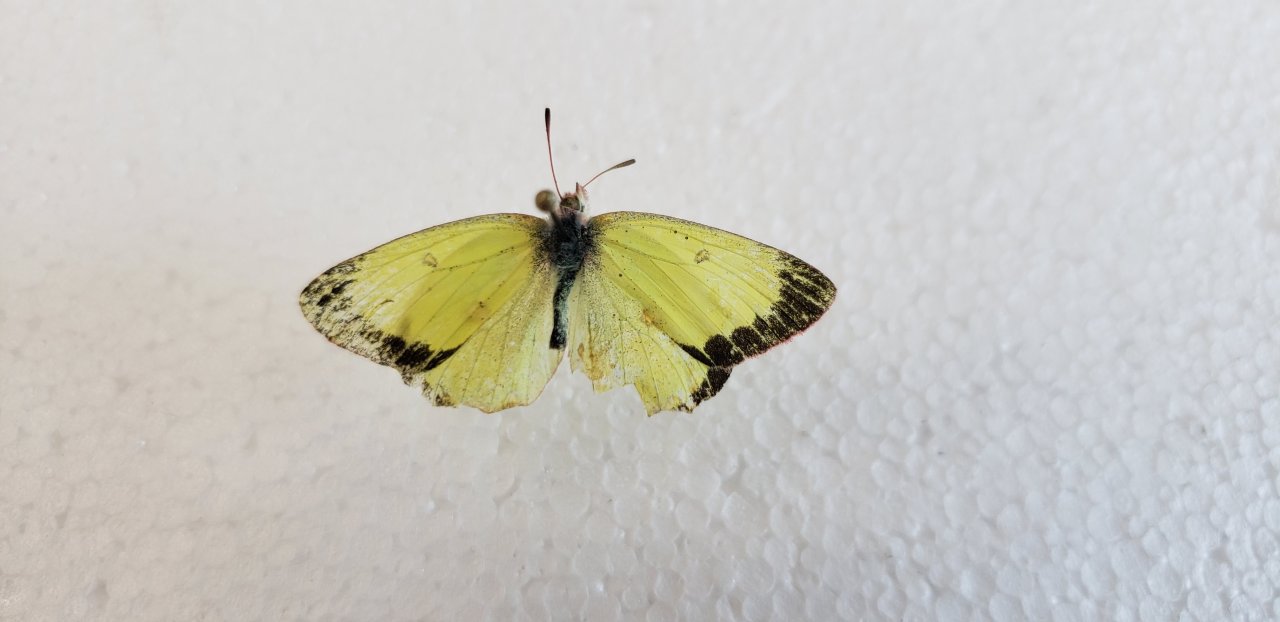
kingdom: Animalia
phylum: Arthropoda
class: Insecta
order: Lepidoptera
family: Pieridae
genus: Colias
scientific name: Colias interior
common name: Pink-edged Sulphur
